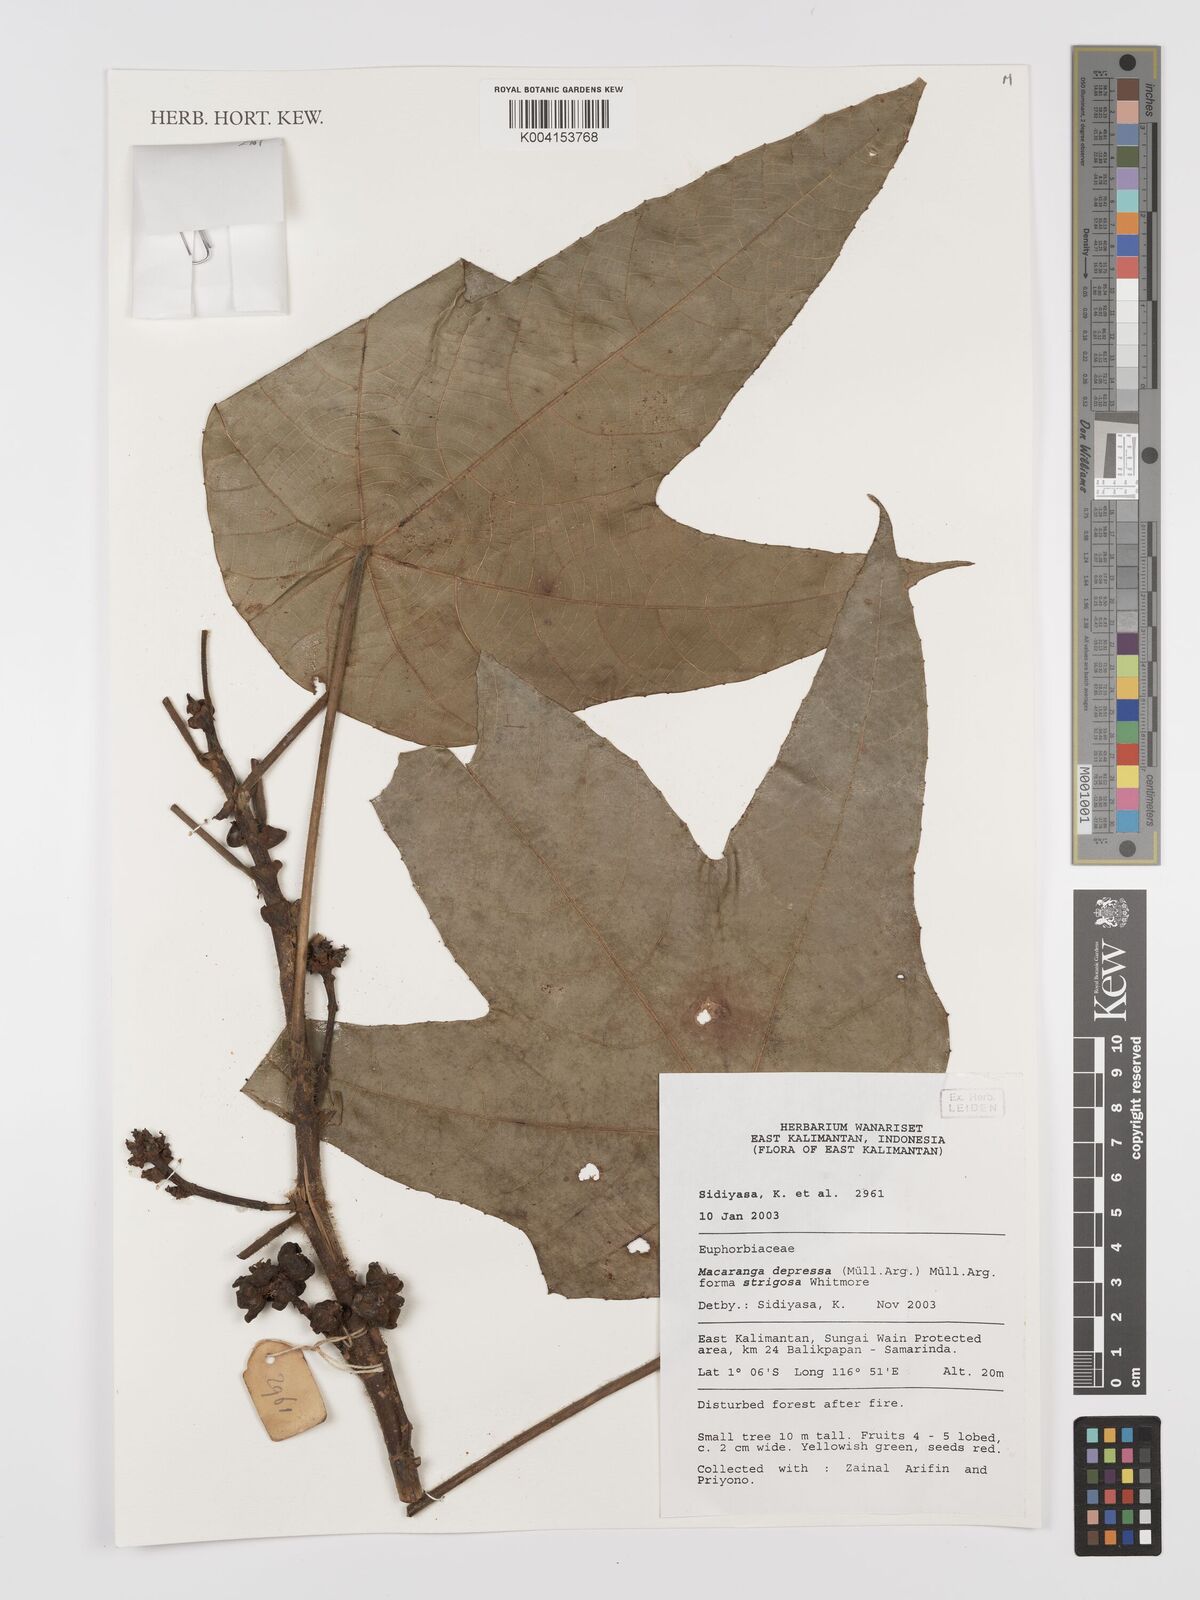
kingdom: Plantae
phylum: Tracheophyta
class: Magnoliopsida
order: Malpighiales
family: Euphorbiaceae
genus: Macaranga
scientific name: Macaranga depressa
